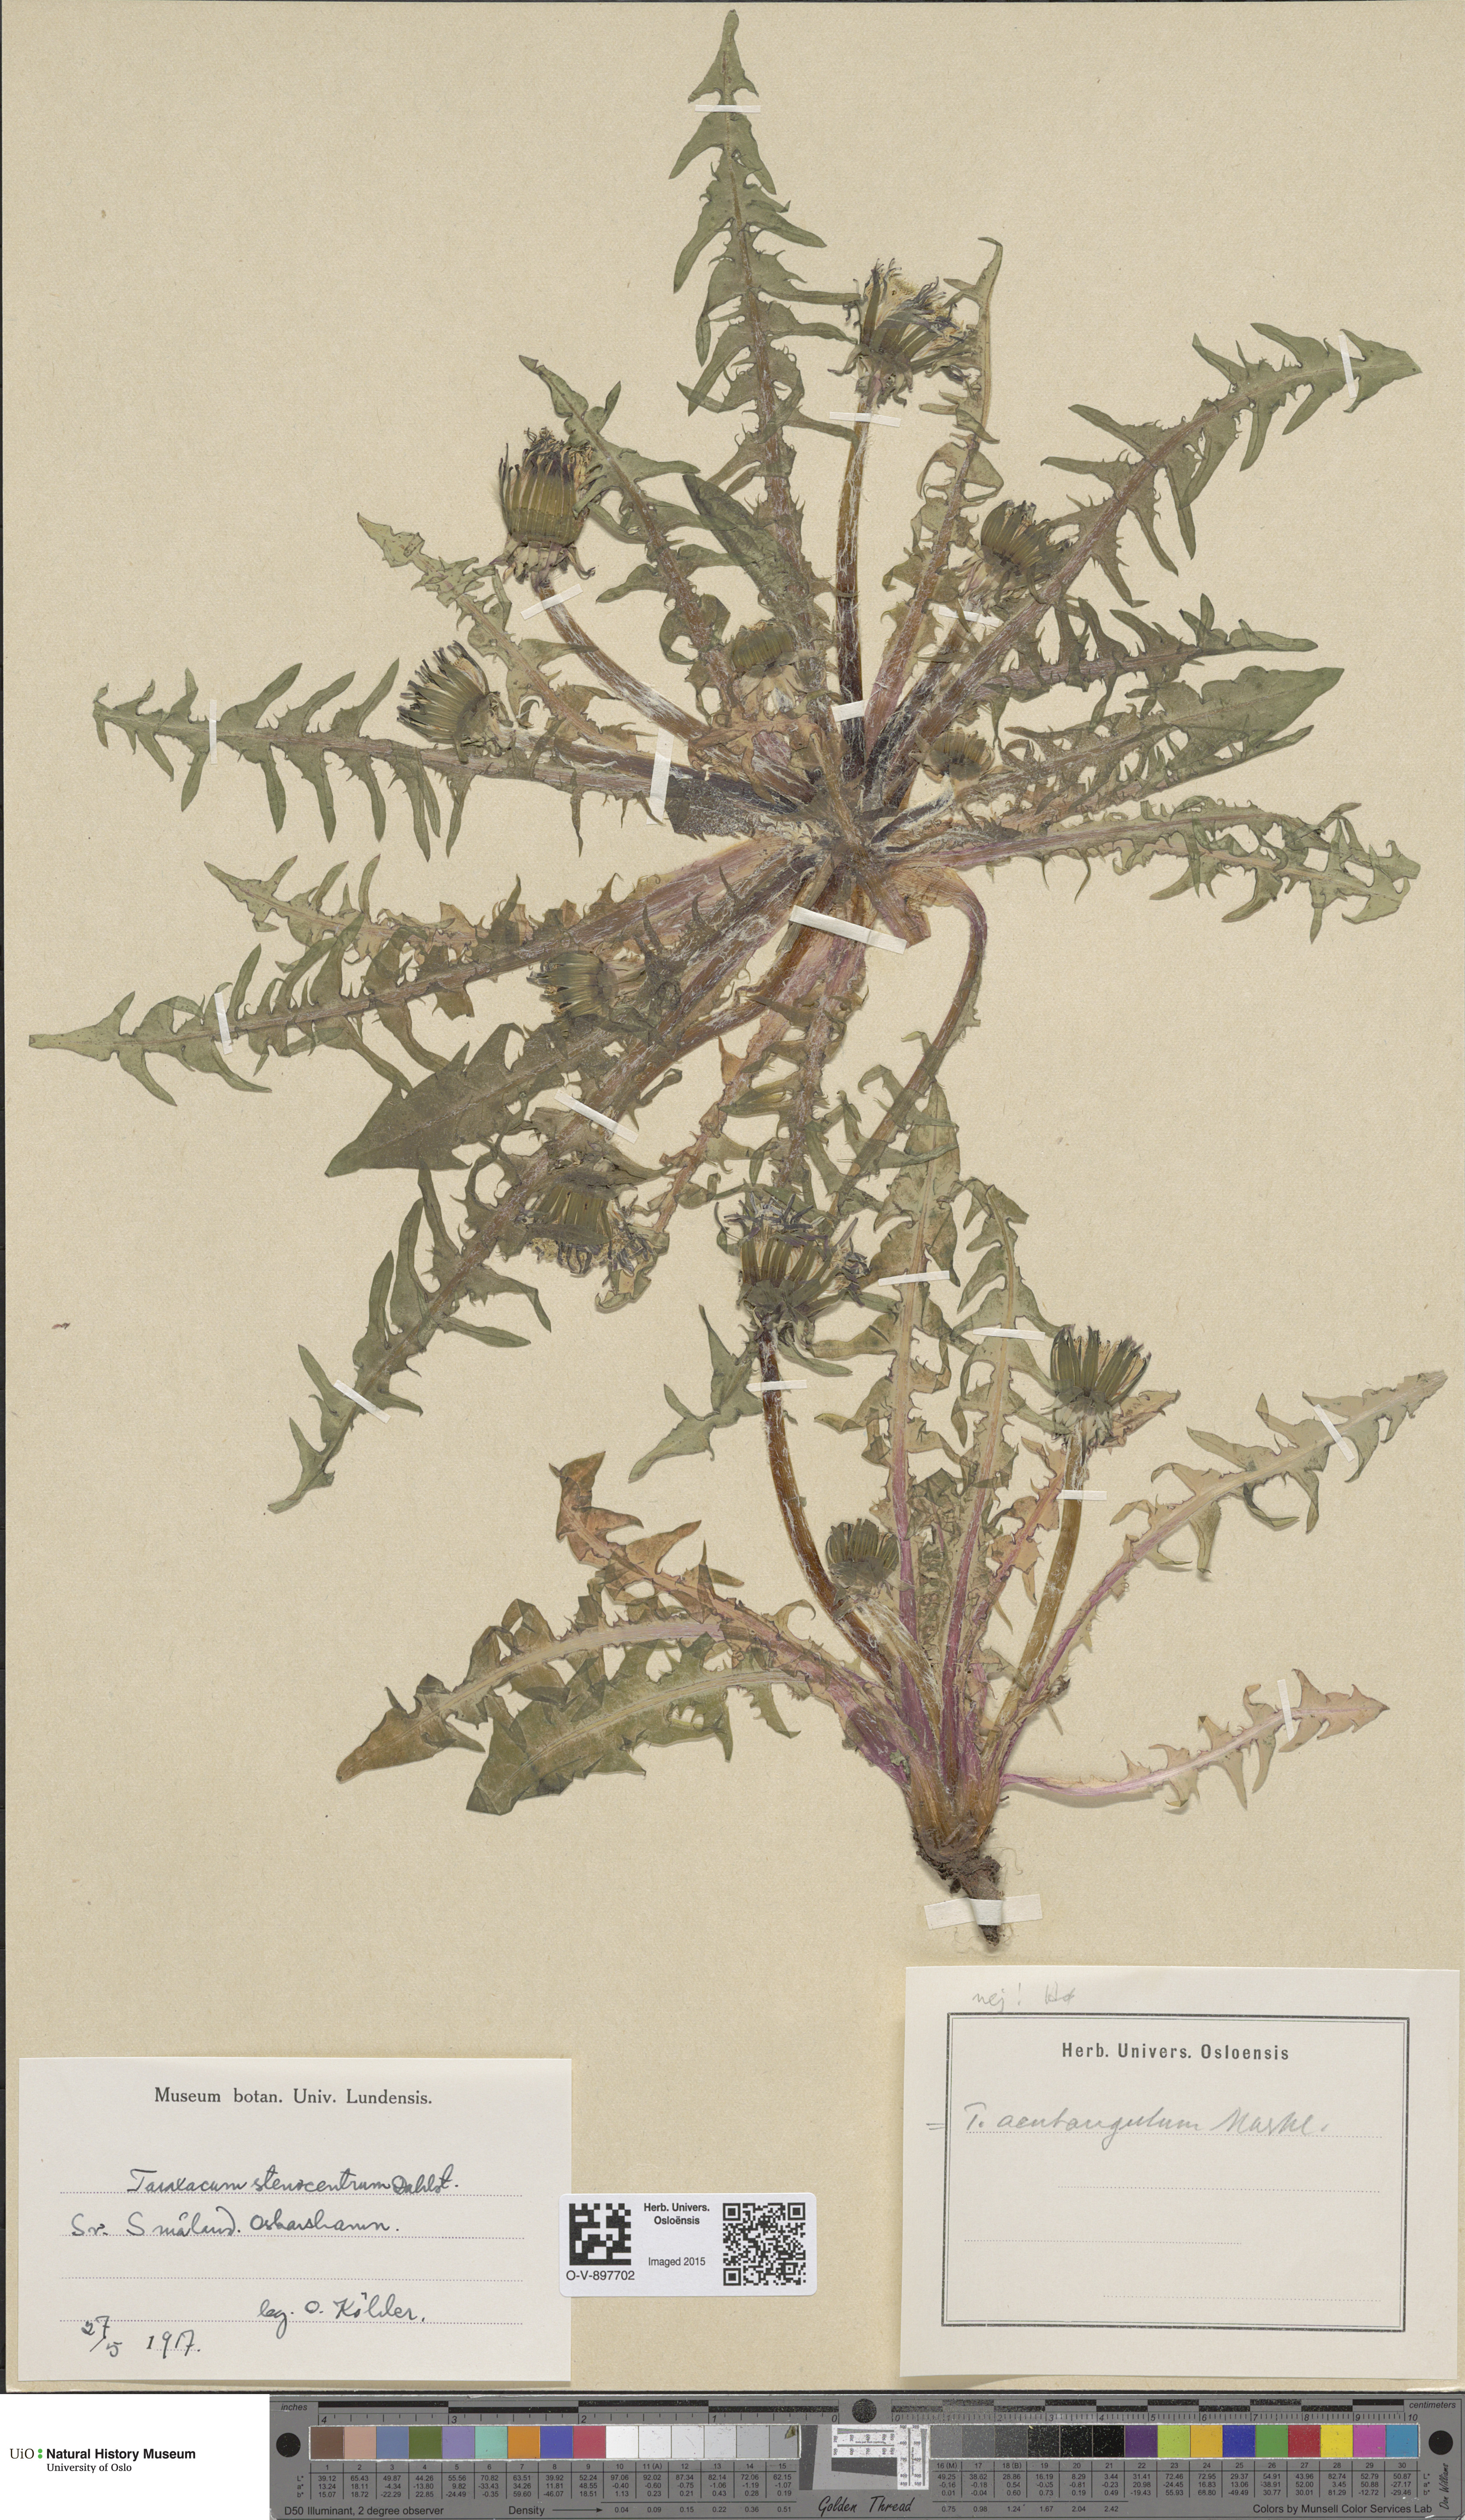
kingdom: Plantae
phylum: Tracheophyta
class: Magnoliopsida
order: Asterales
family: Asteraceae
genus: Taraxacum
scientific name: Taraxacum acutangulum
